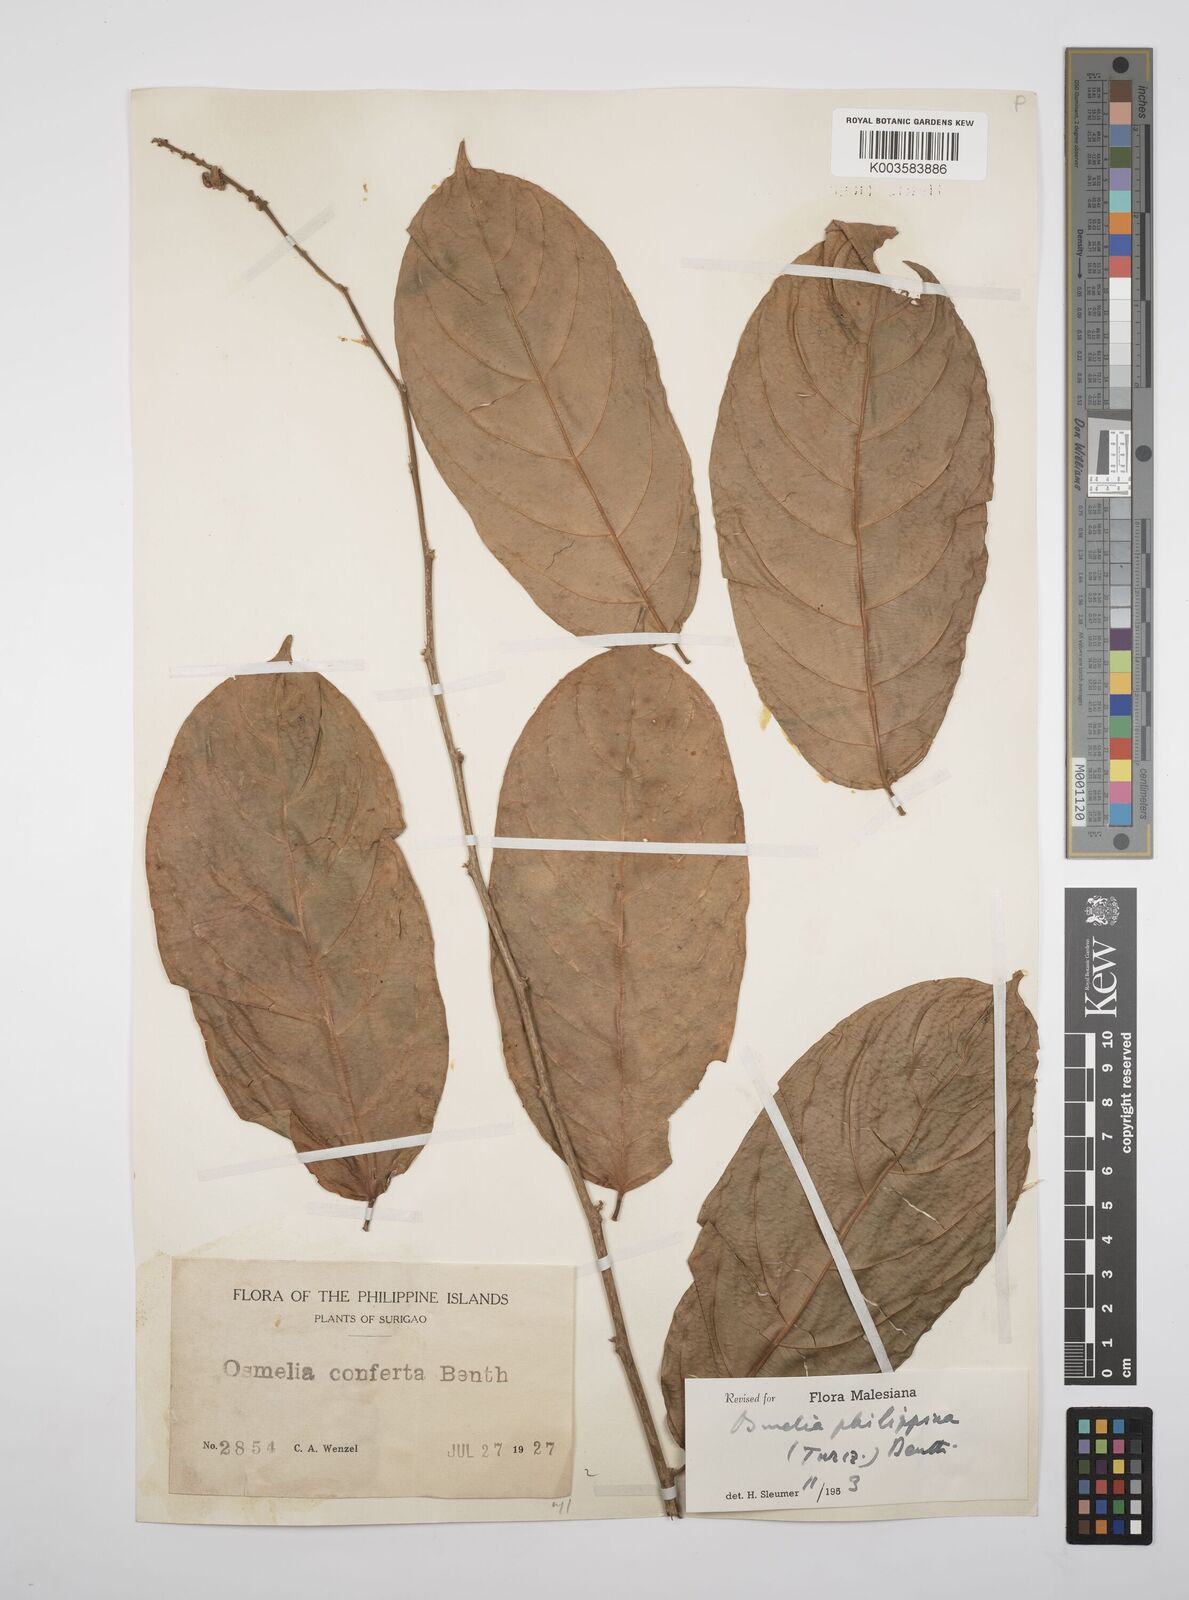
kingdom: Plantae
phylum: Tracheophyta
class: Magnoliopsida
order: Malpighiales
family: Salicaceae
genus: Osmelia
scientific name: Osmelia philippina
